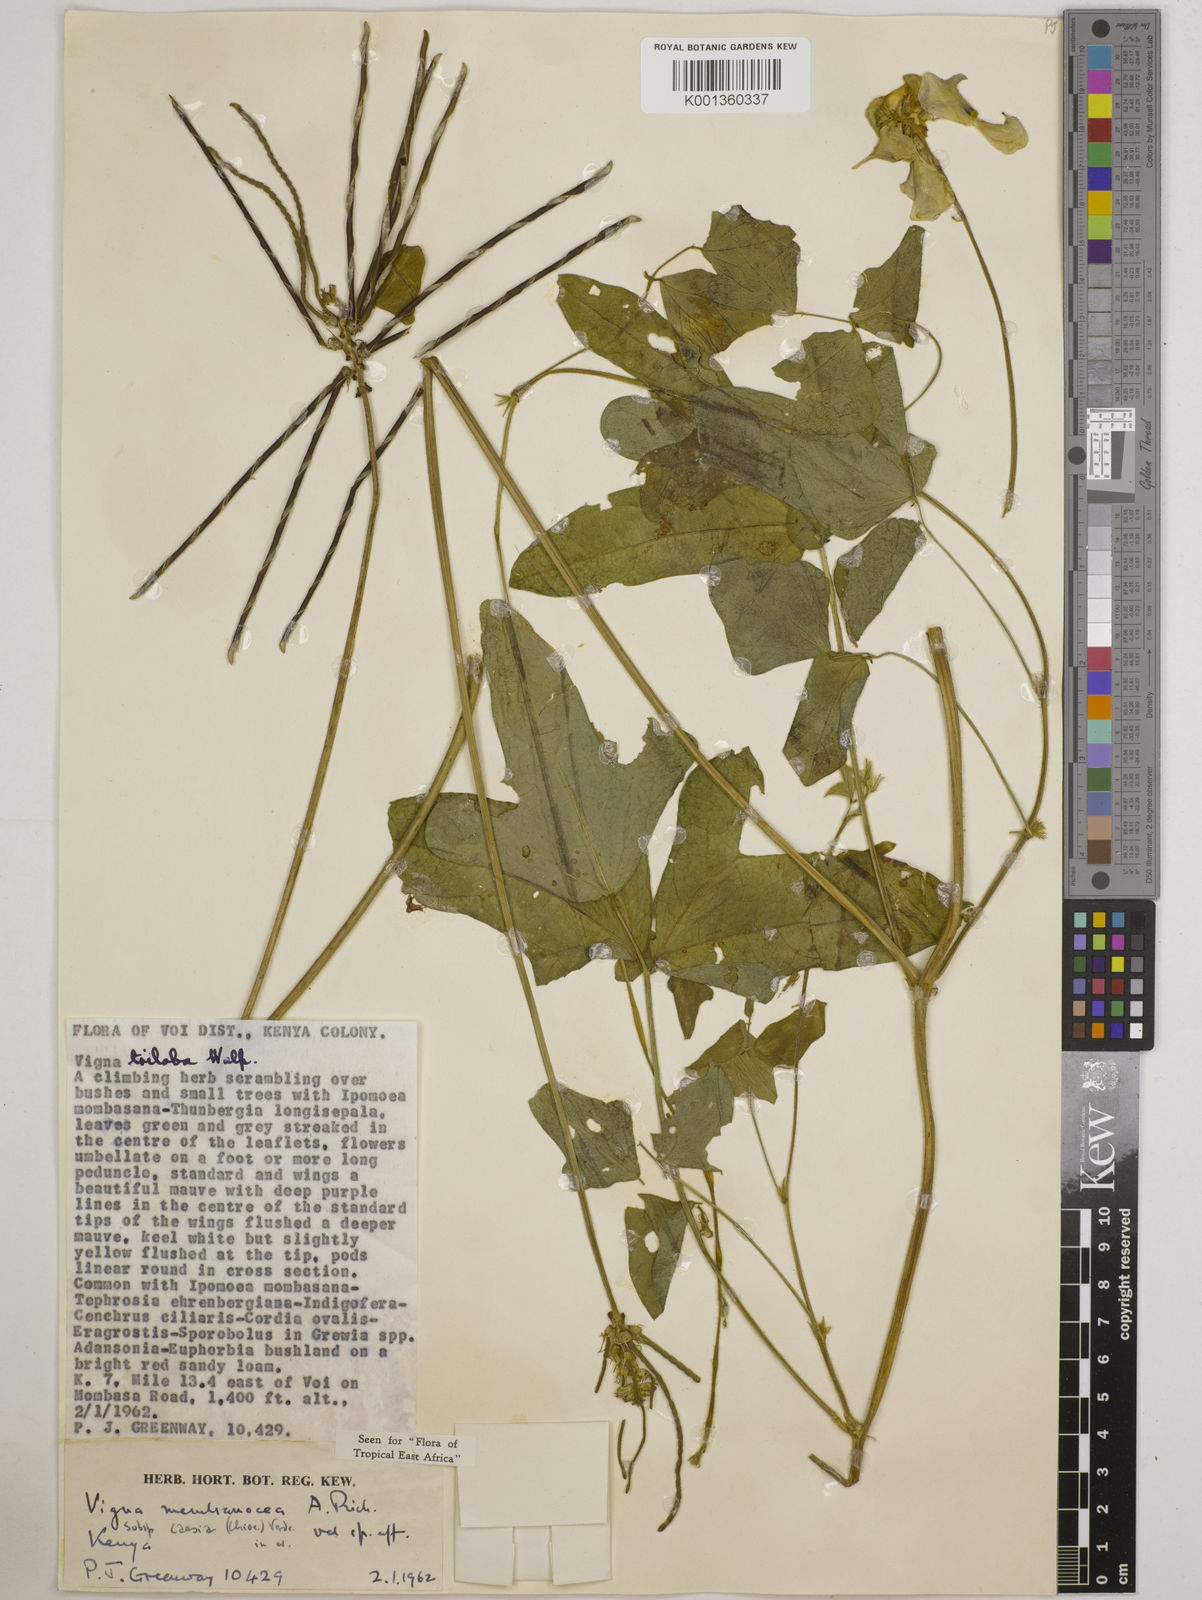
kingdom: Plantae
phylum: Tracheophyta
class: Magnoliopsida
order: Fabales
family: Fabaceae
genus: Vigna
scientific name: Vigna
